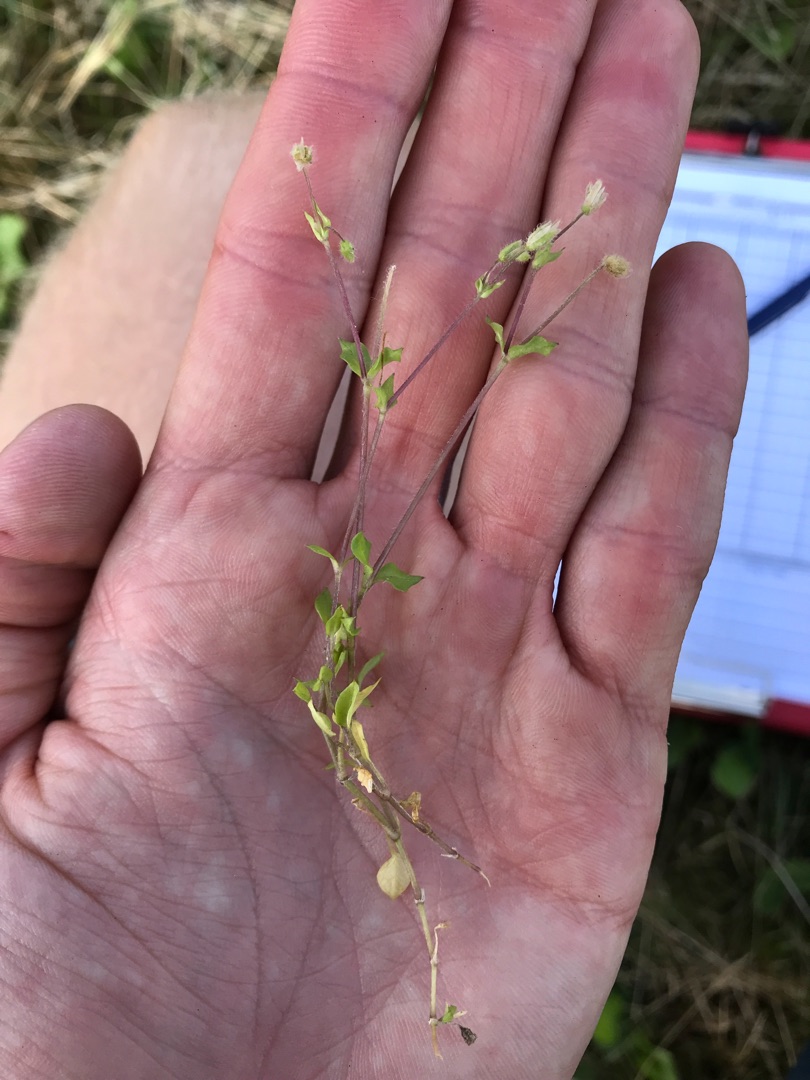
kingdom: Plantae
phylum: Tracheophyta
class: Magnoliopsida
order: Caryophyllales
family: Caryophyllaceae
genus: Stellaria
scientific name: Stellaria media
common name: Almindelig fuglegræs
